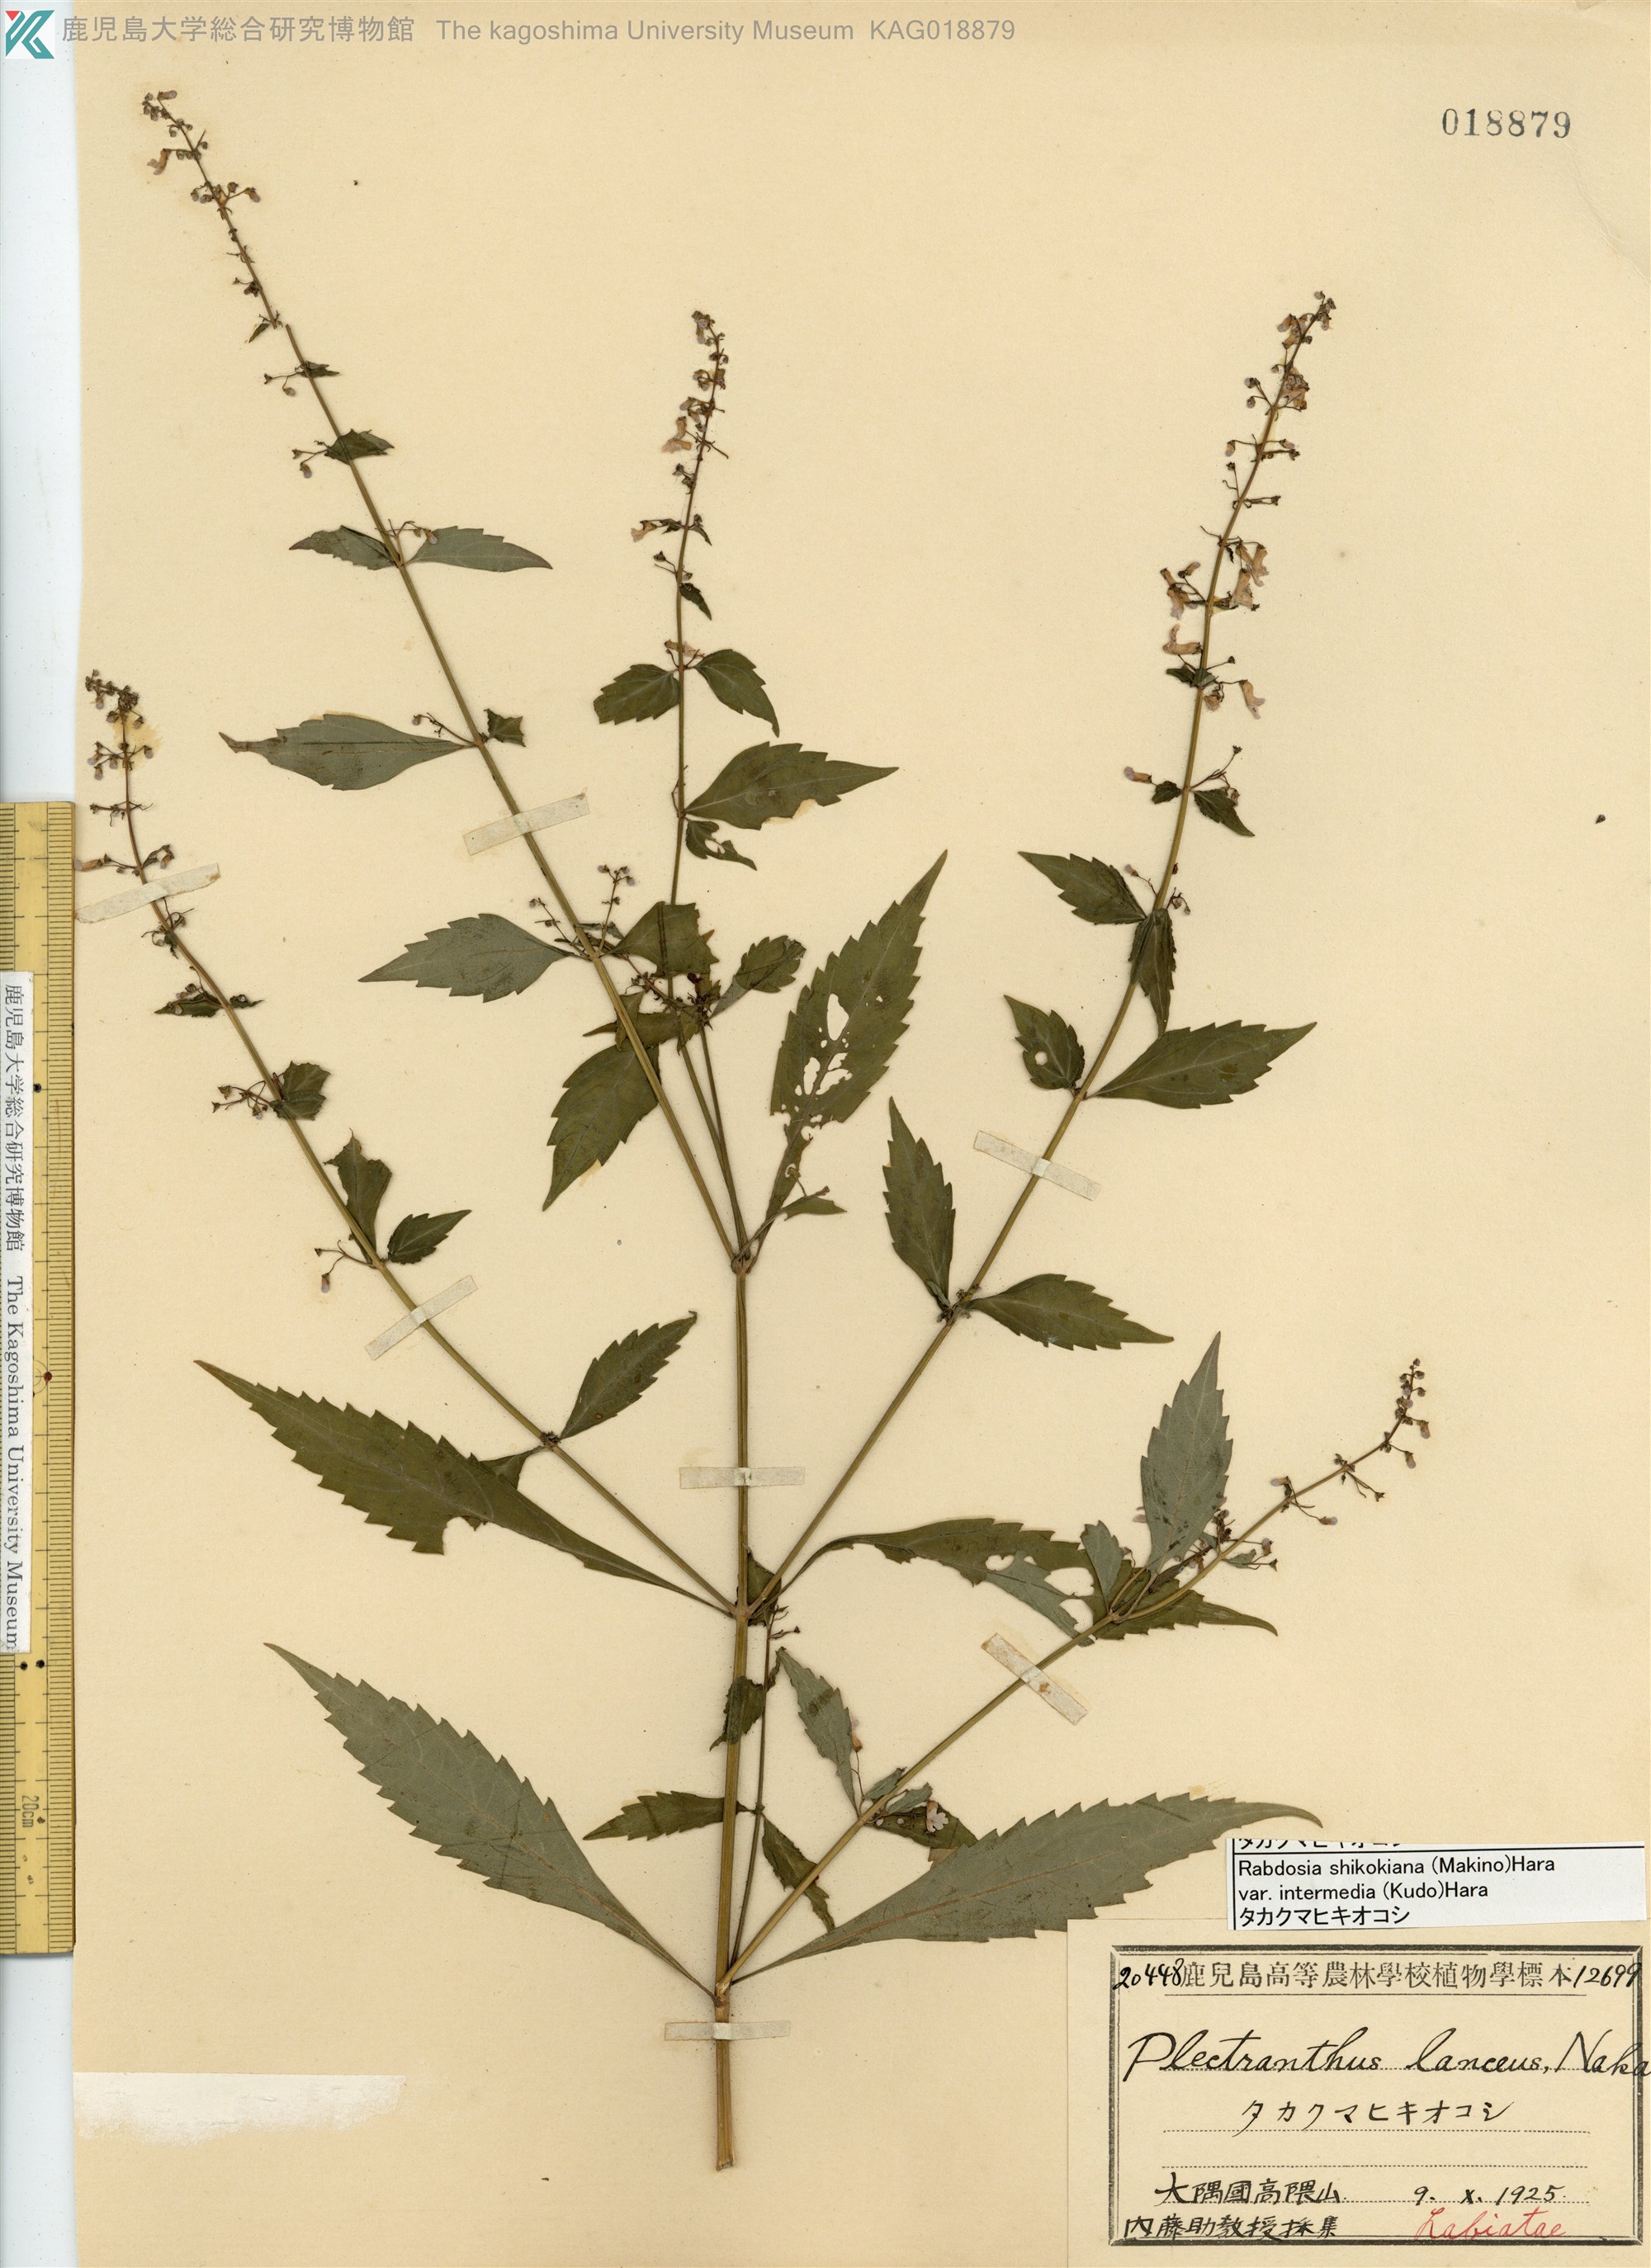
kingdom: Plantae
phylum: Tracheophyta
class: Magnoliopsida
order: Lamiales
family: Lamiaceae
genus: Isodon
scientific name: Isodon shikokianus
